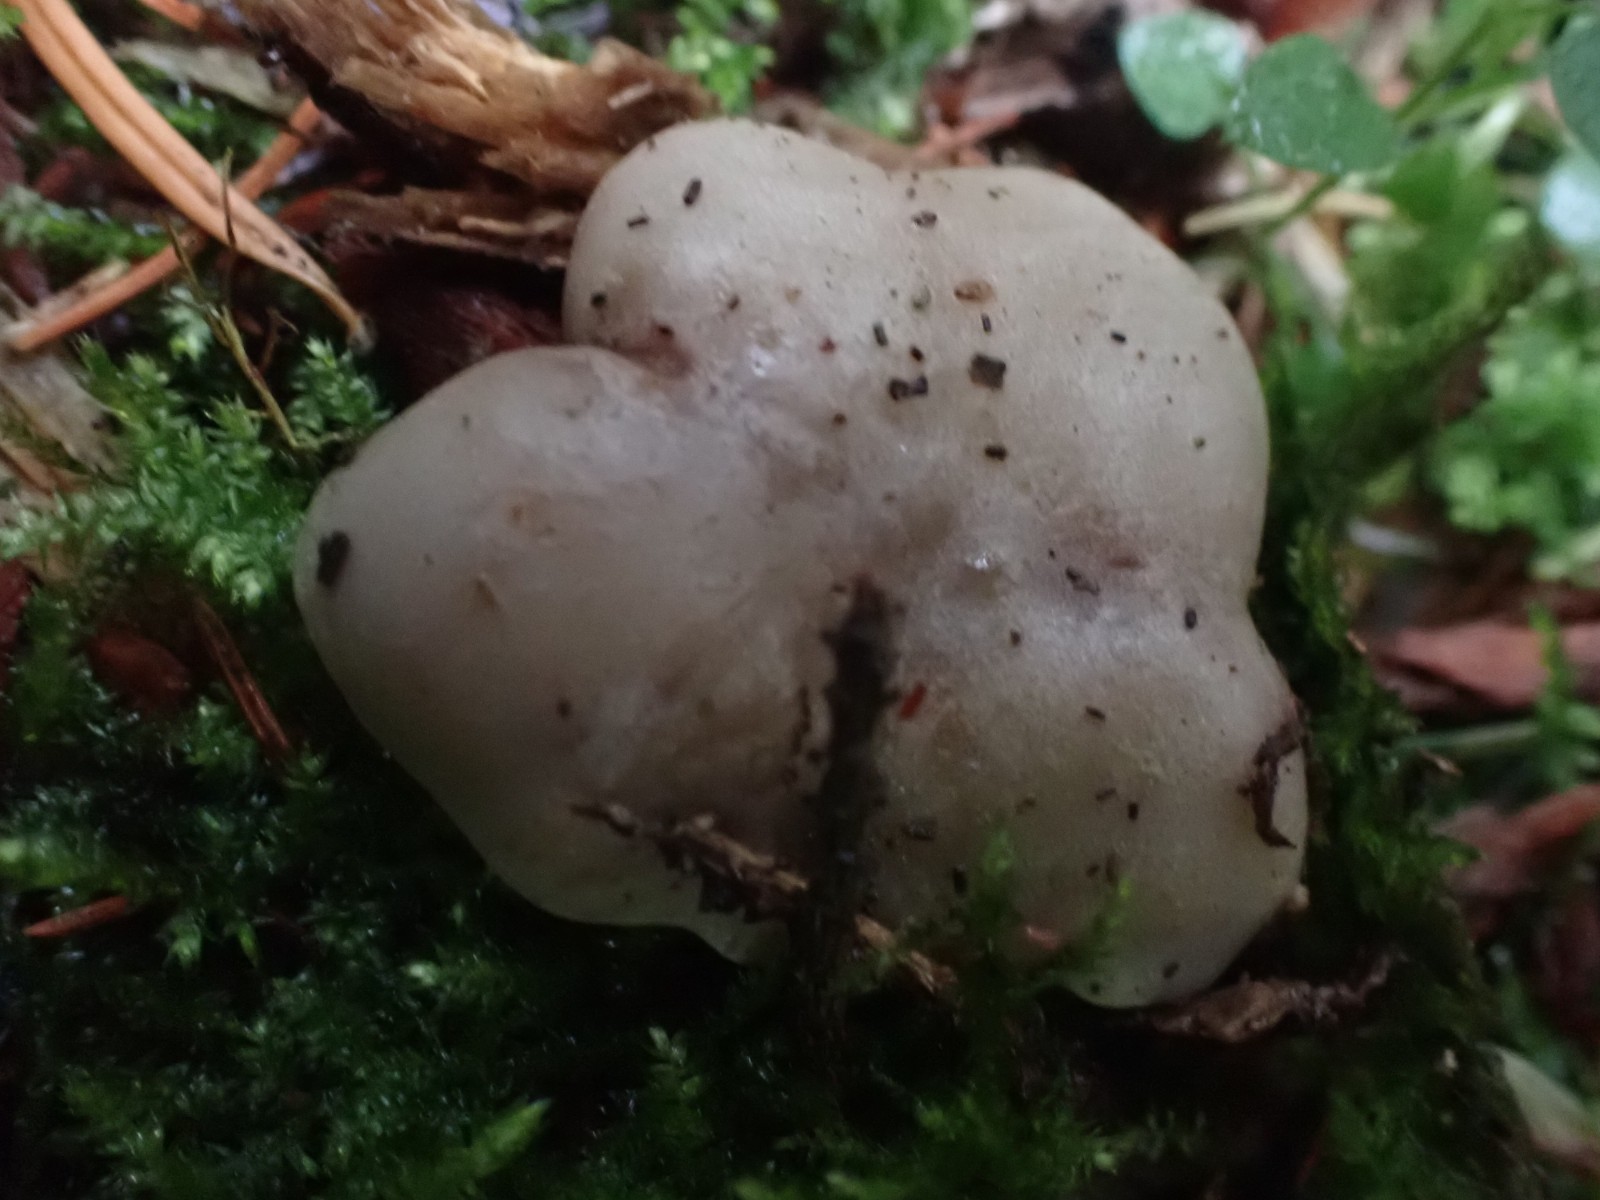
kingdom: Fungi
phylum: Basidiomycota
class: Agaricomycetes
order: Agaricales
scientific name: Agaricales
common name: champignonordenen
